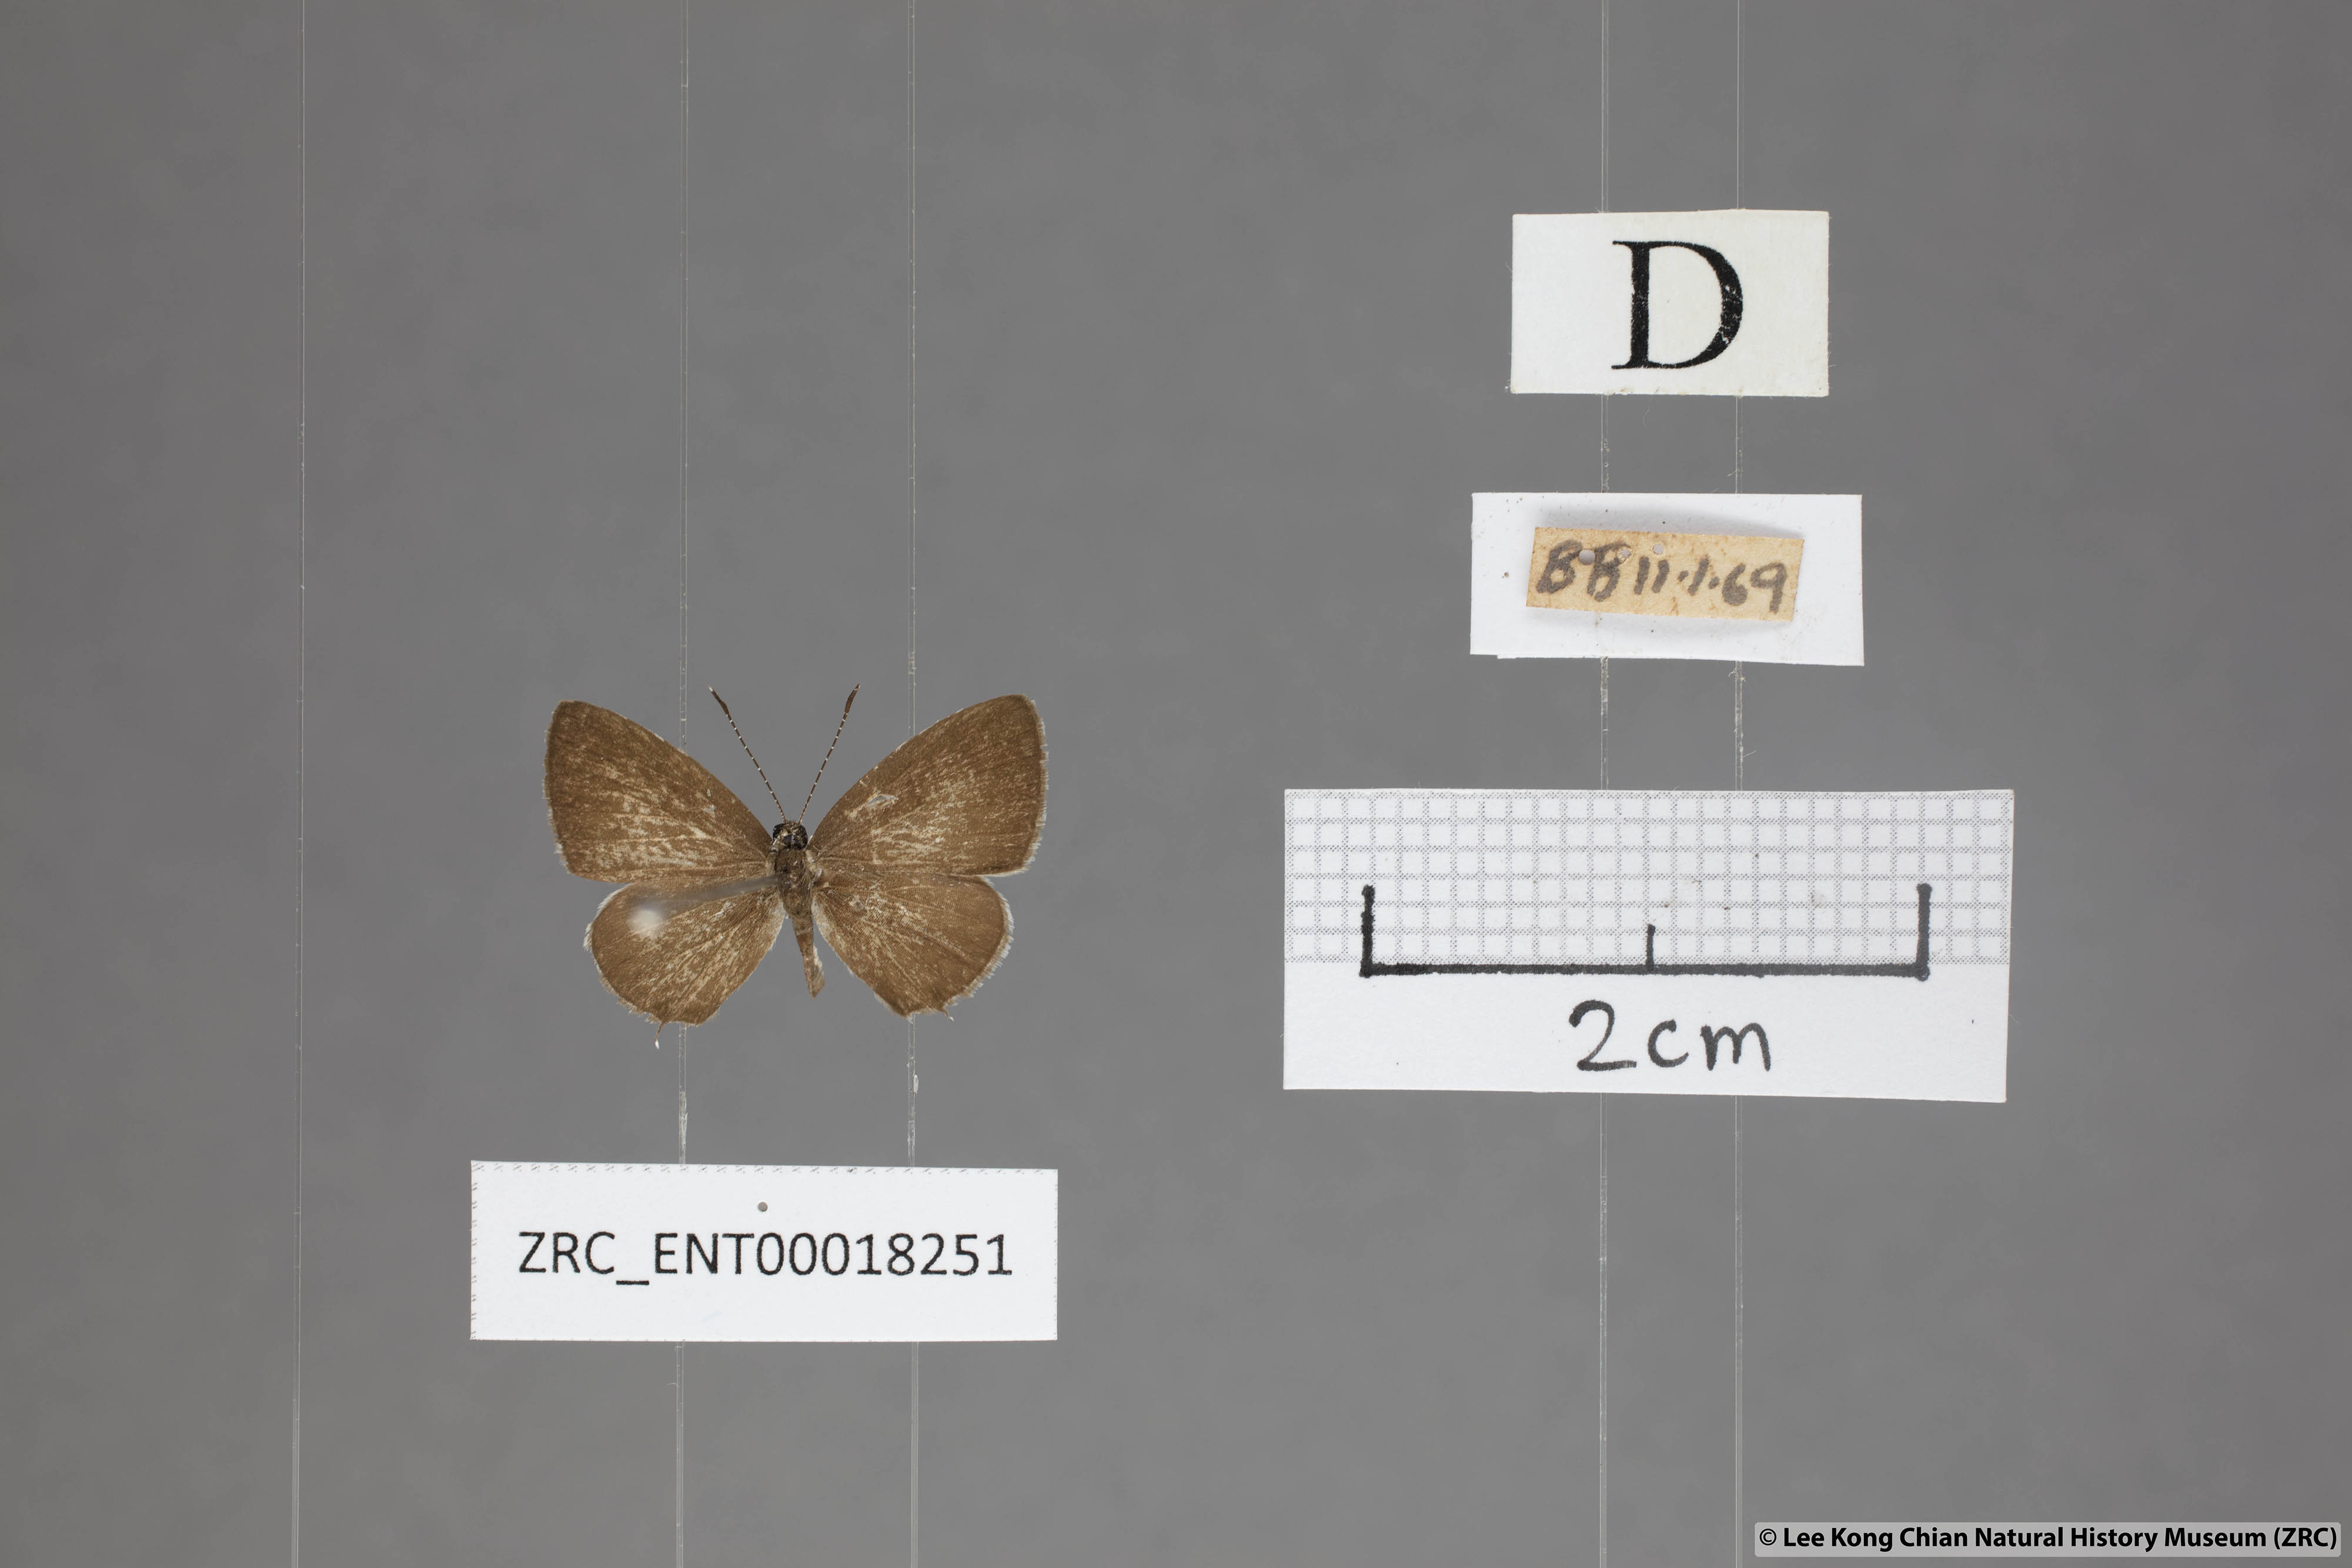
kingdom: Animalia
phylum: Arthropoda
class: Insecta
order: Lepidoptera
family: Lycaenidae
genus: Megisba
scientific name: Megisba malaya
